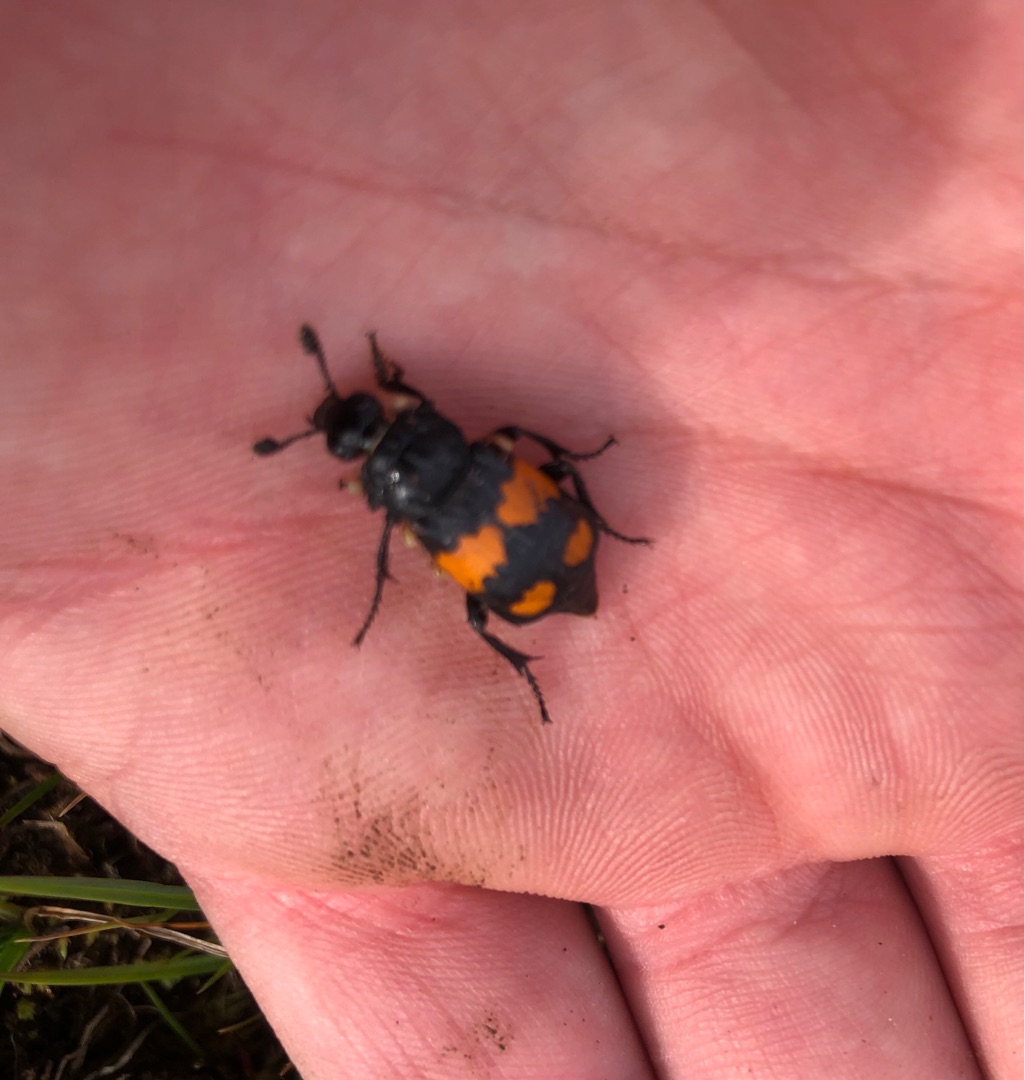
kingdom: Animalia
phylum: Arthropoda
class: Insecta
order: Coleoptera
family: Staphylinidae
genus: Nicrophorus
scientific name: Nicrophorus vespilloides
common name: Sortkøllet ådselgraver
